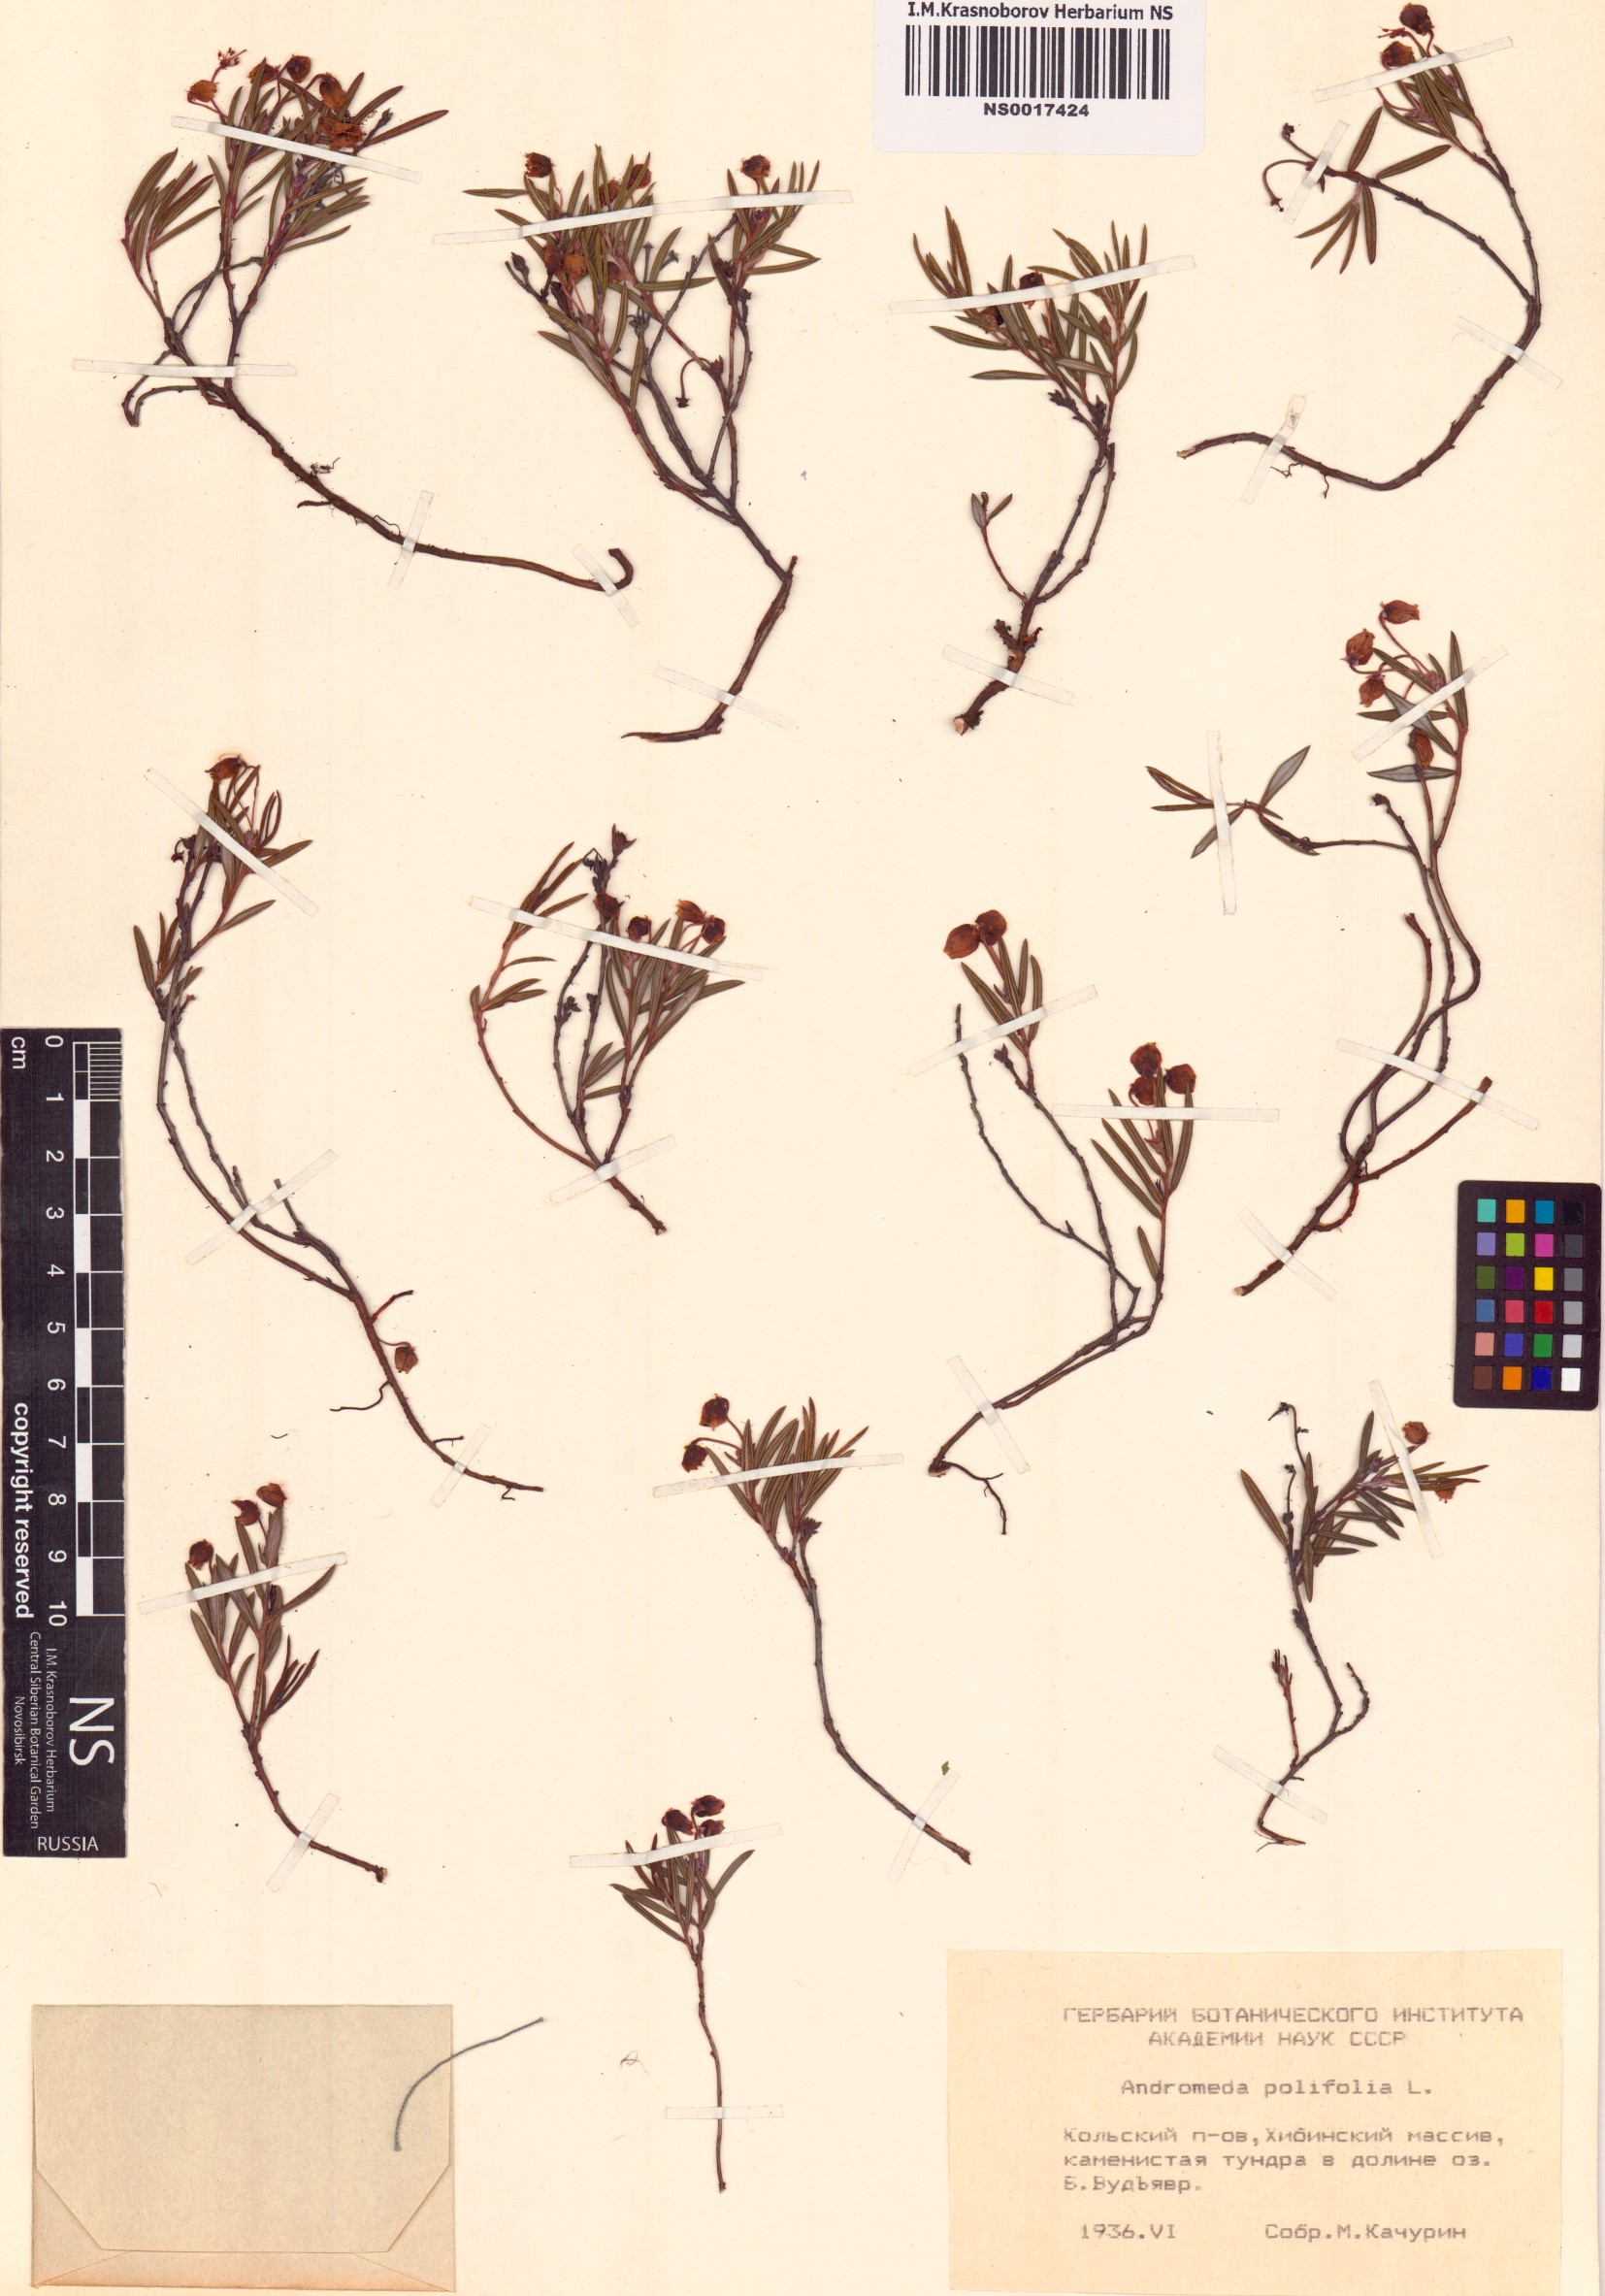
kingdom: Plantae
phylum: Tracheophyta
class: Magnoliopsida
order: Ericales
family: Ericaceae
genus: Andromeda
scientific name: Andromeda polifolia
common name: Bog-rosemary
